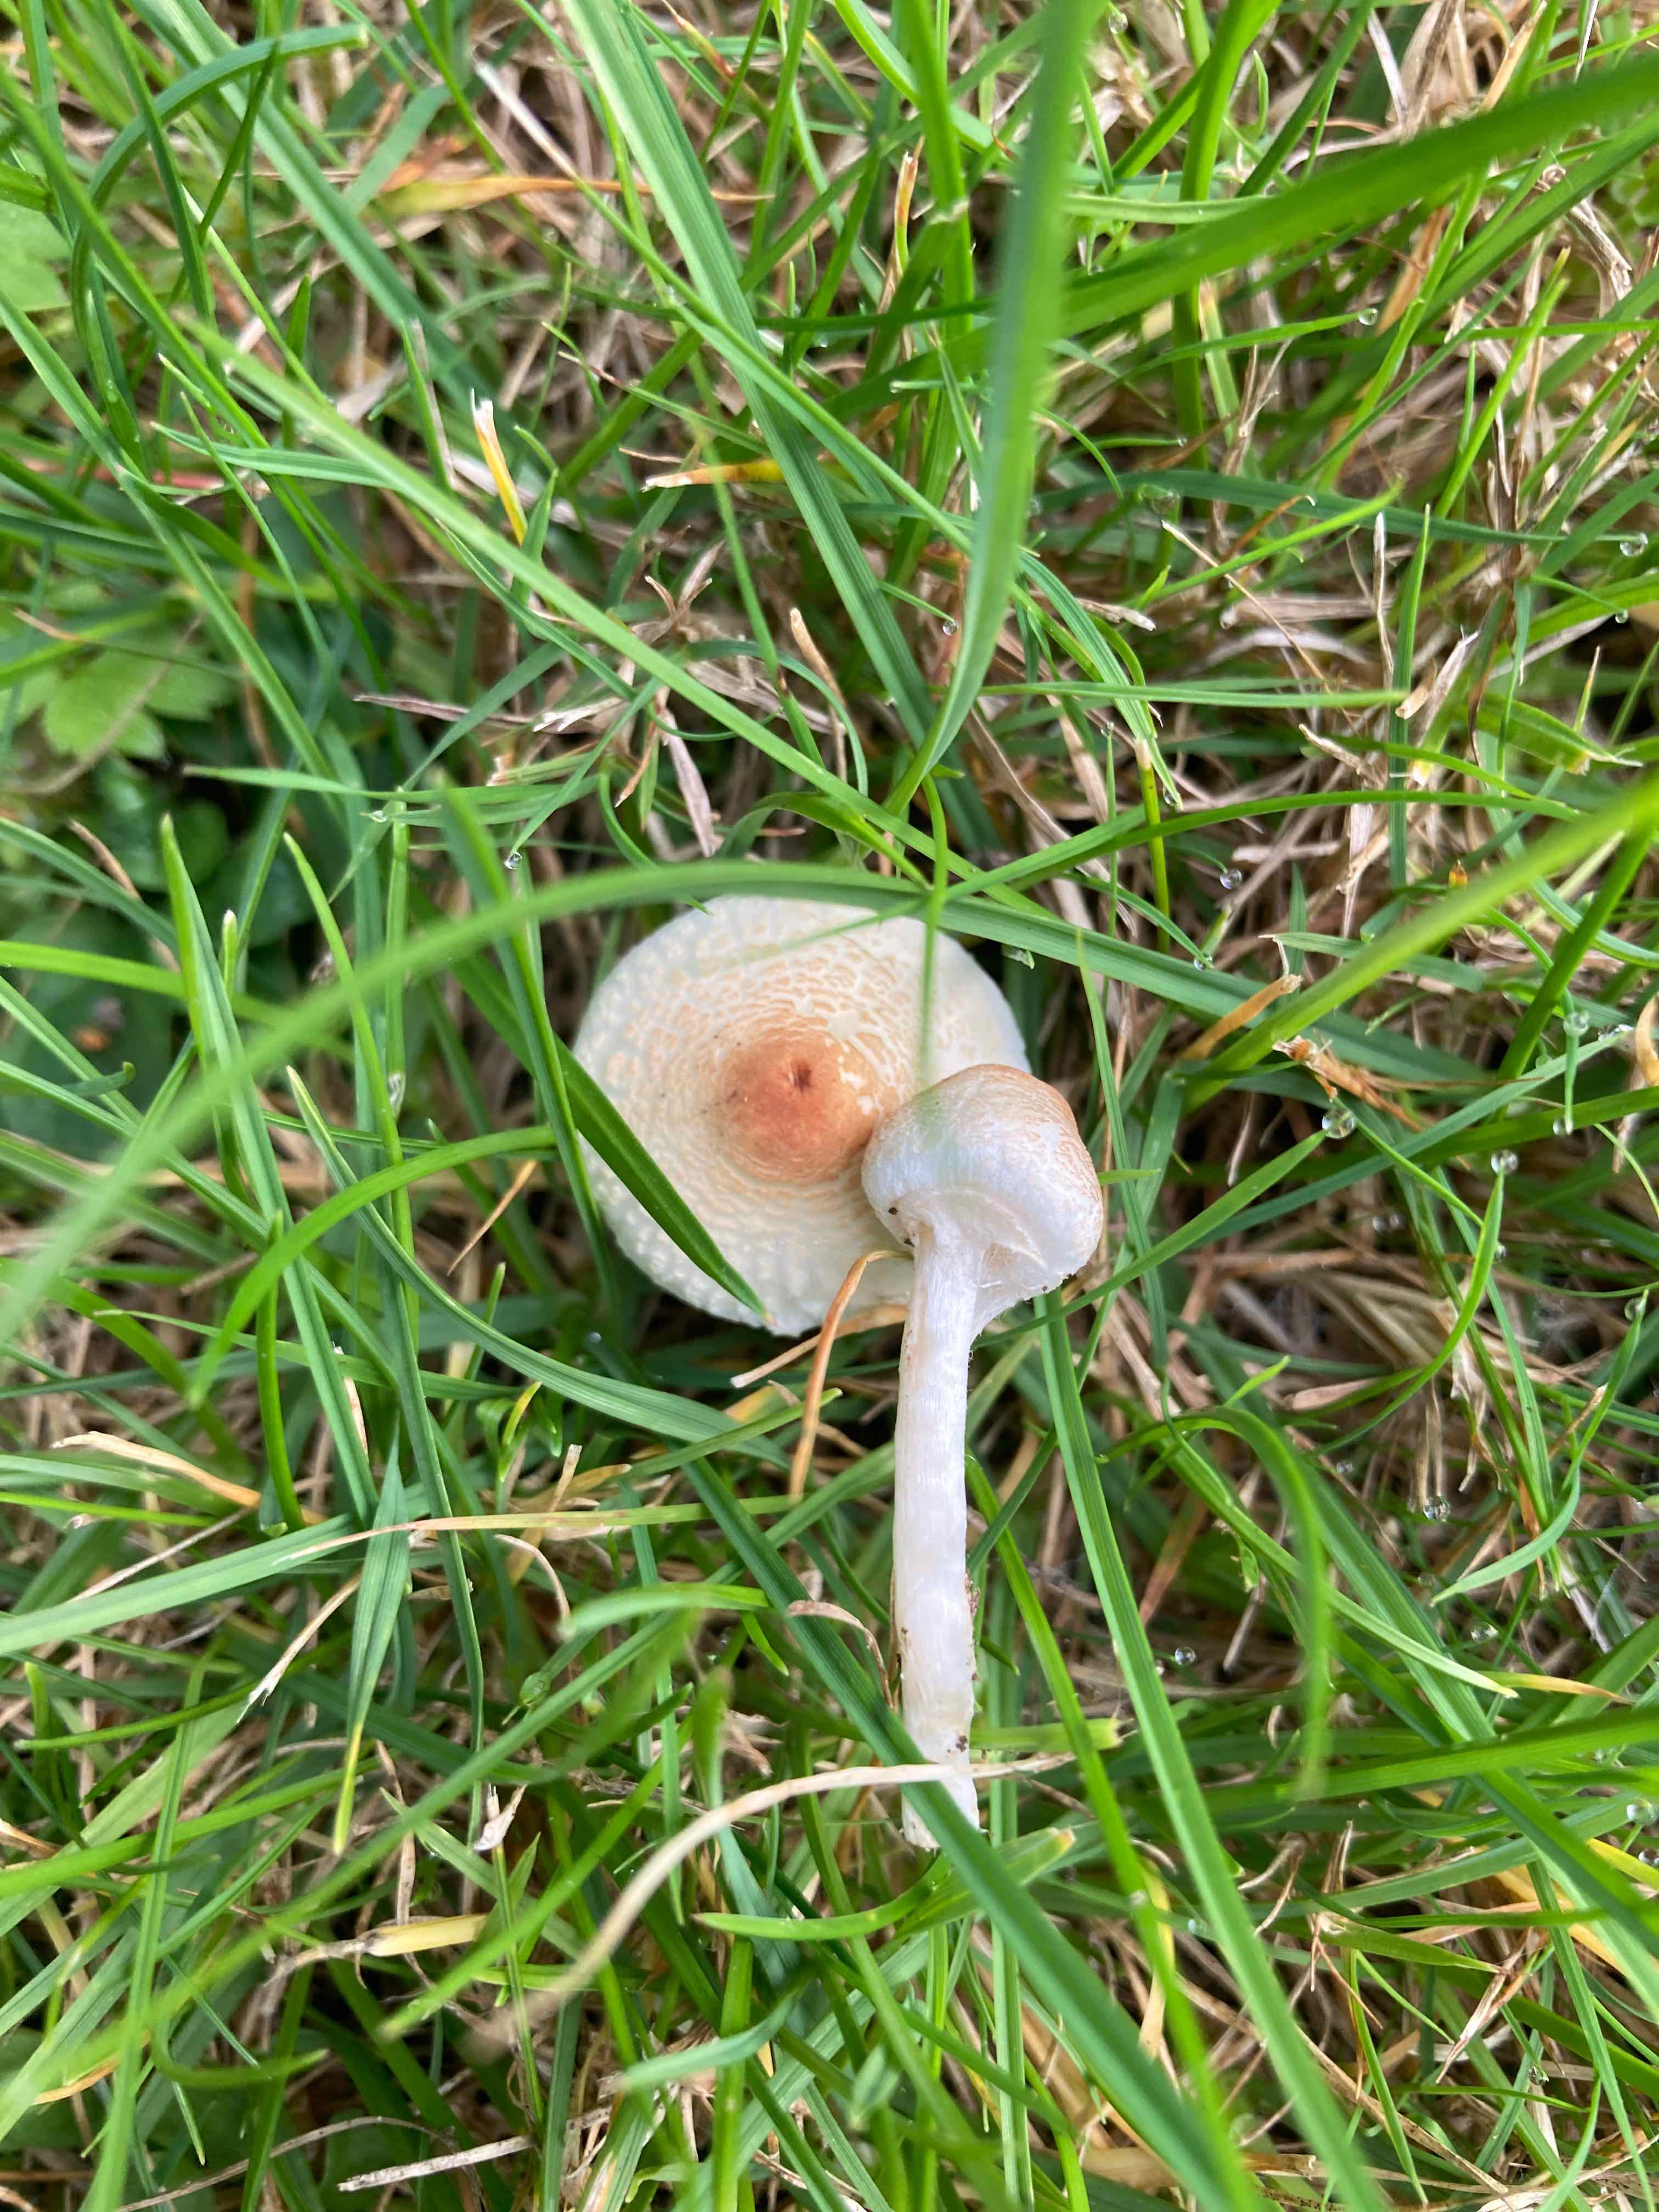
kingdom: Fungi
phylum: Basidiomycota
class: Agaricomycetes
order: Agaricales
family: Agaricaceae
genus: Lepiota
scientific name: Lepiota cristata
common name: stinkende parasolhat
